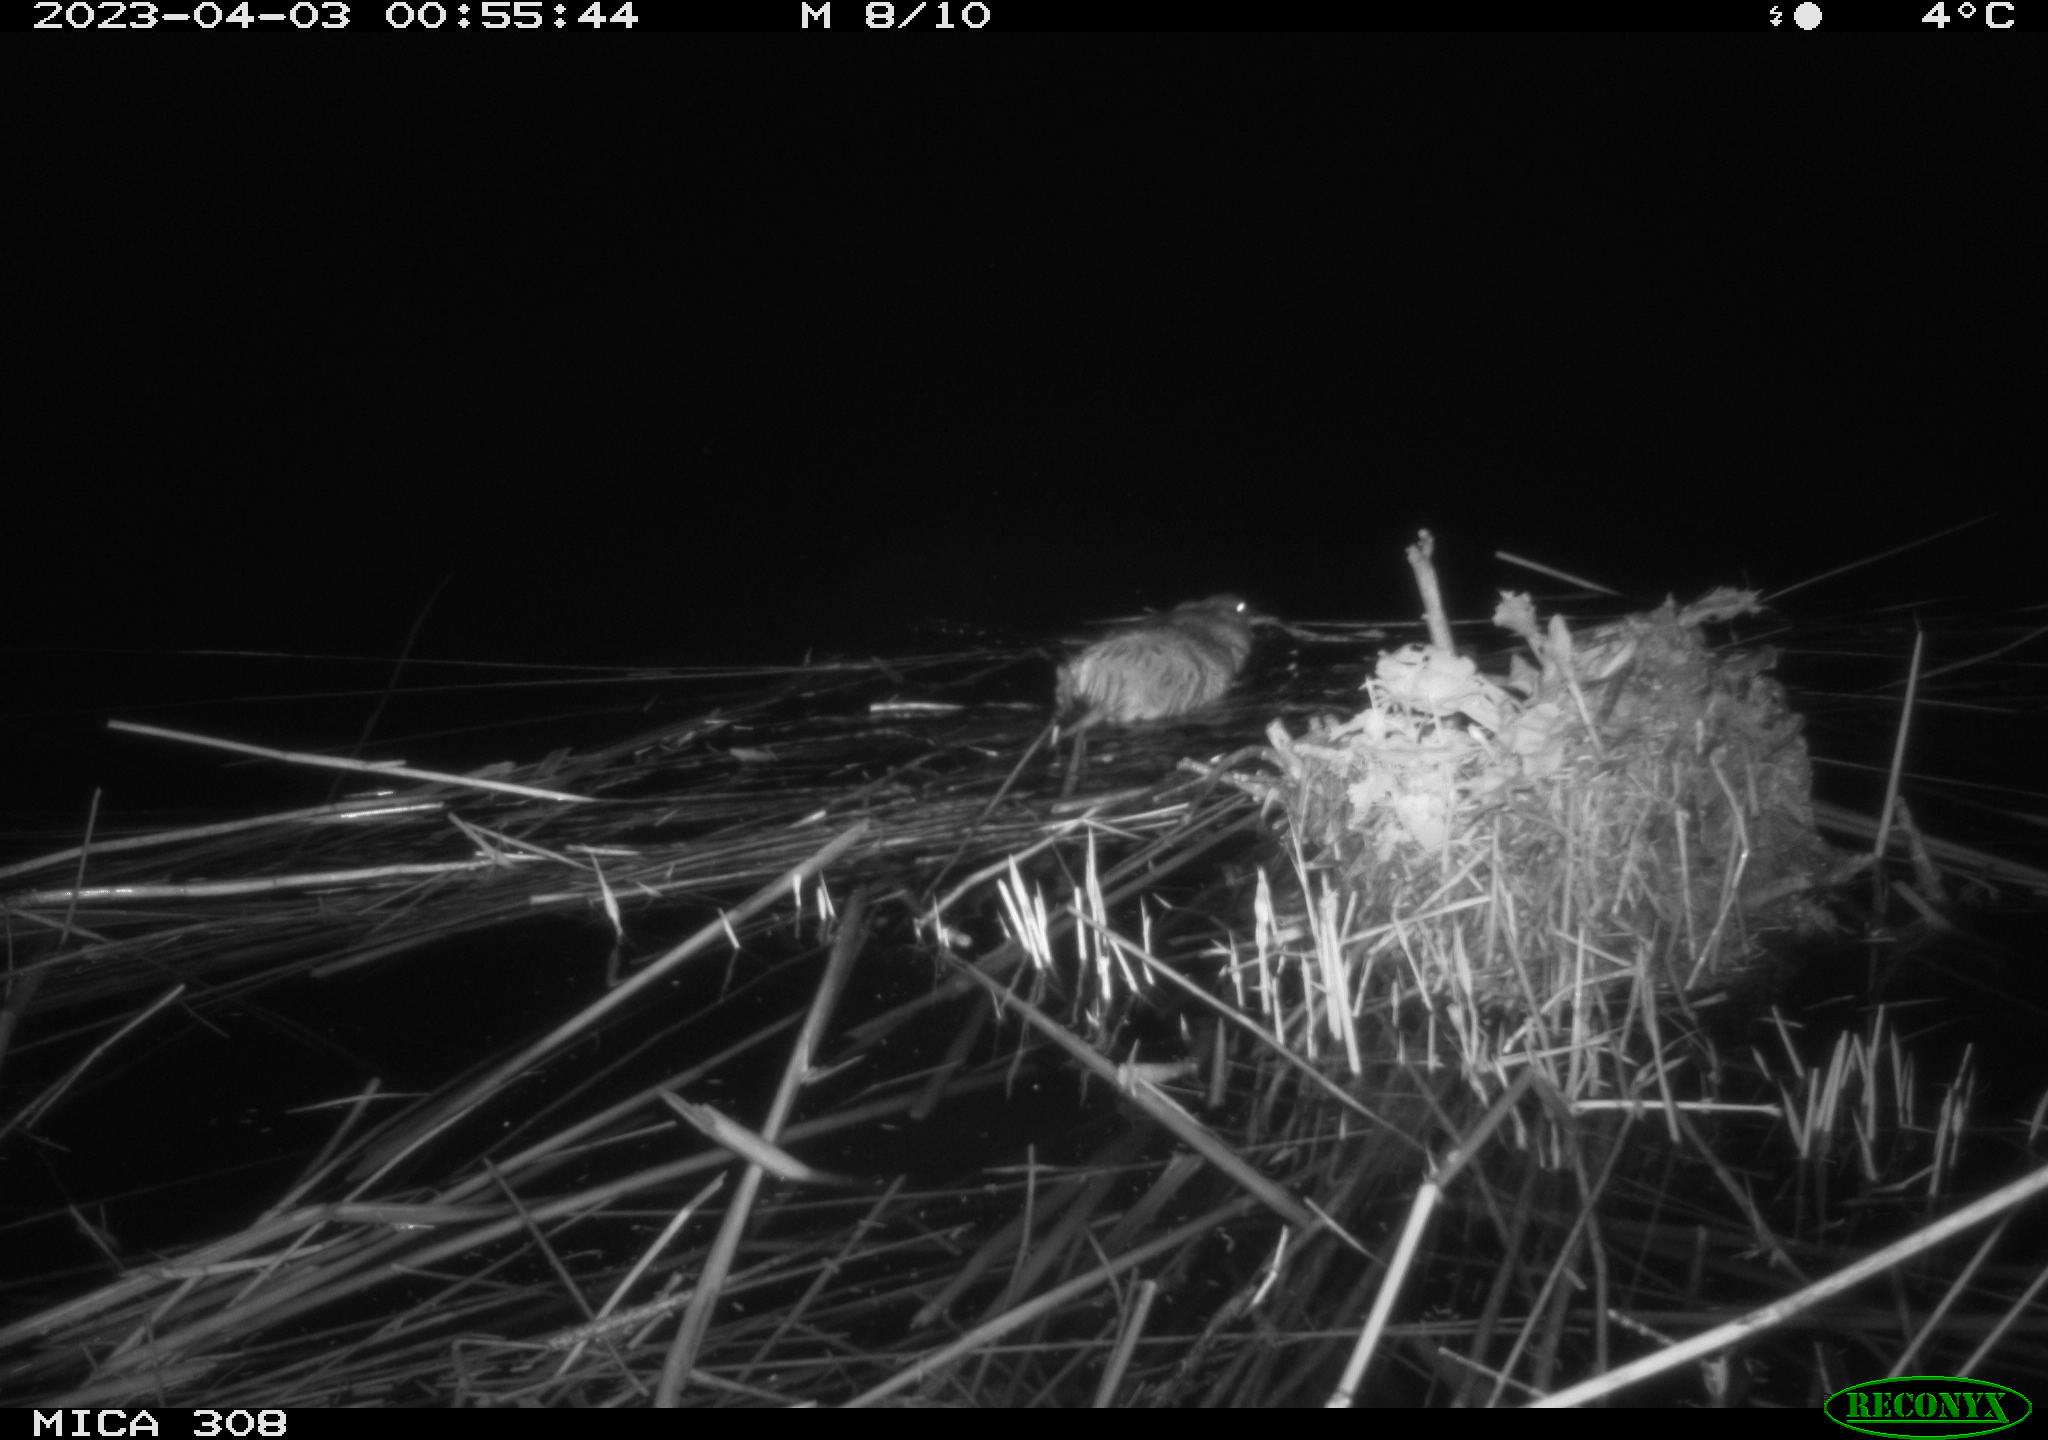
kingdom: Animalia
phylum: Chordata
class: Mammalia
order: Rodentia
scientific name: Rodentia
